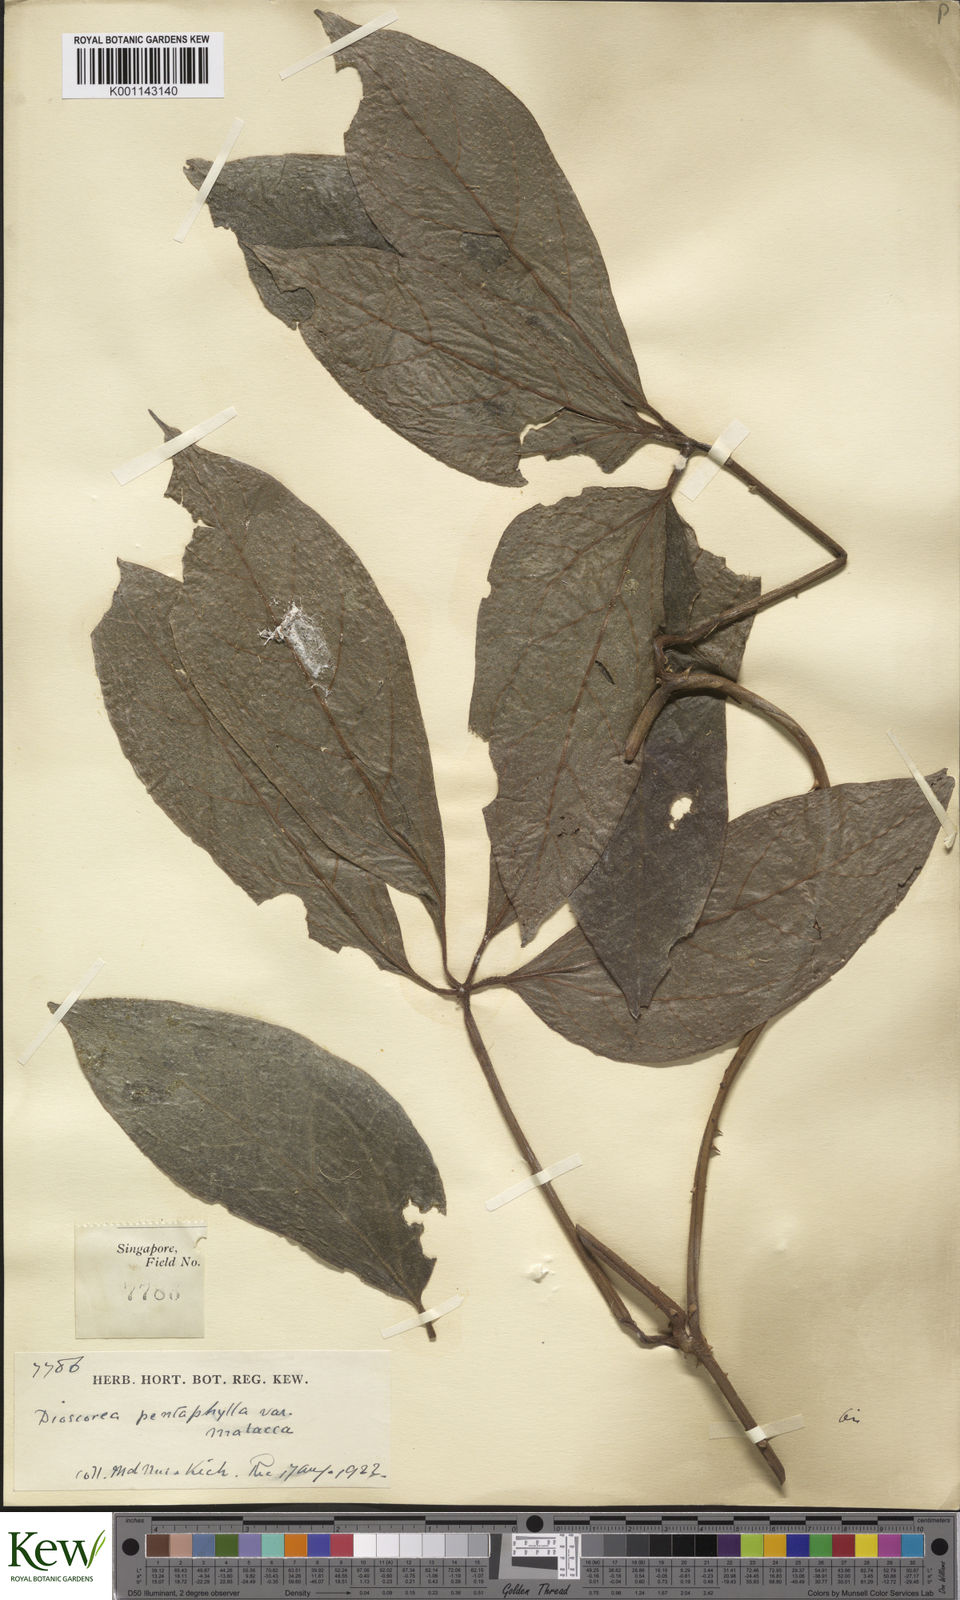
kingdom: Plantae
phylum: Tracheophyta
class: Liliopsida
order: Dioscoreales
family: Dioscoreaceae
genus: Dioscorea
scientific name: Dioscorea pentaphylla
